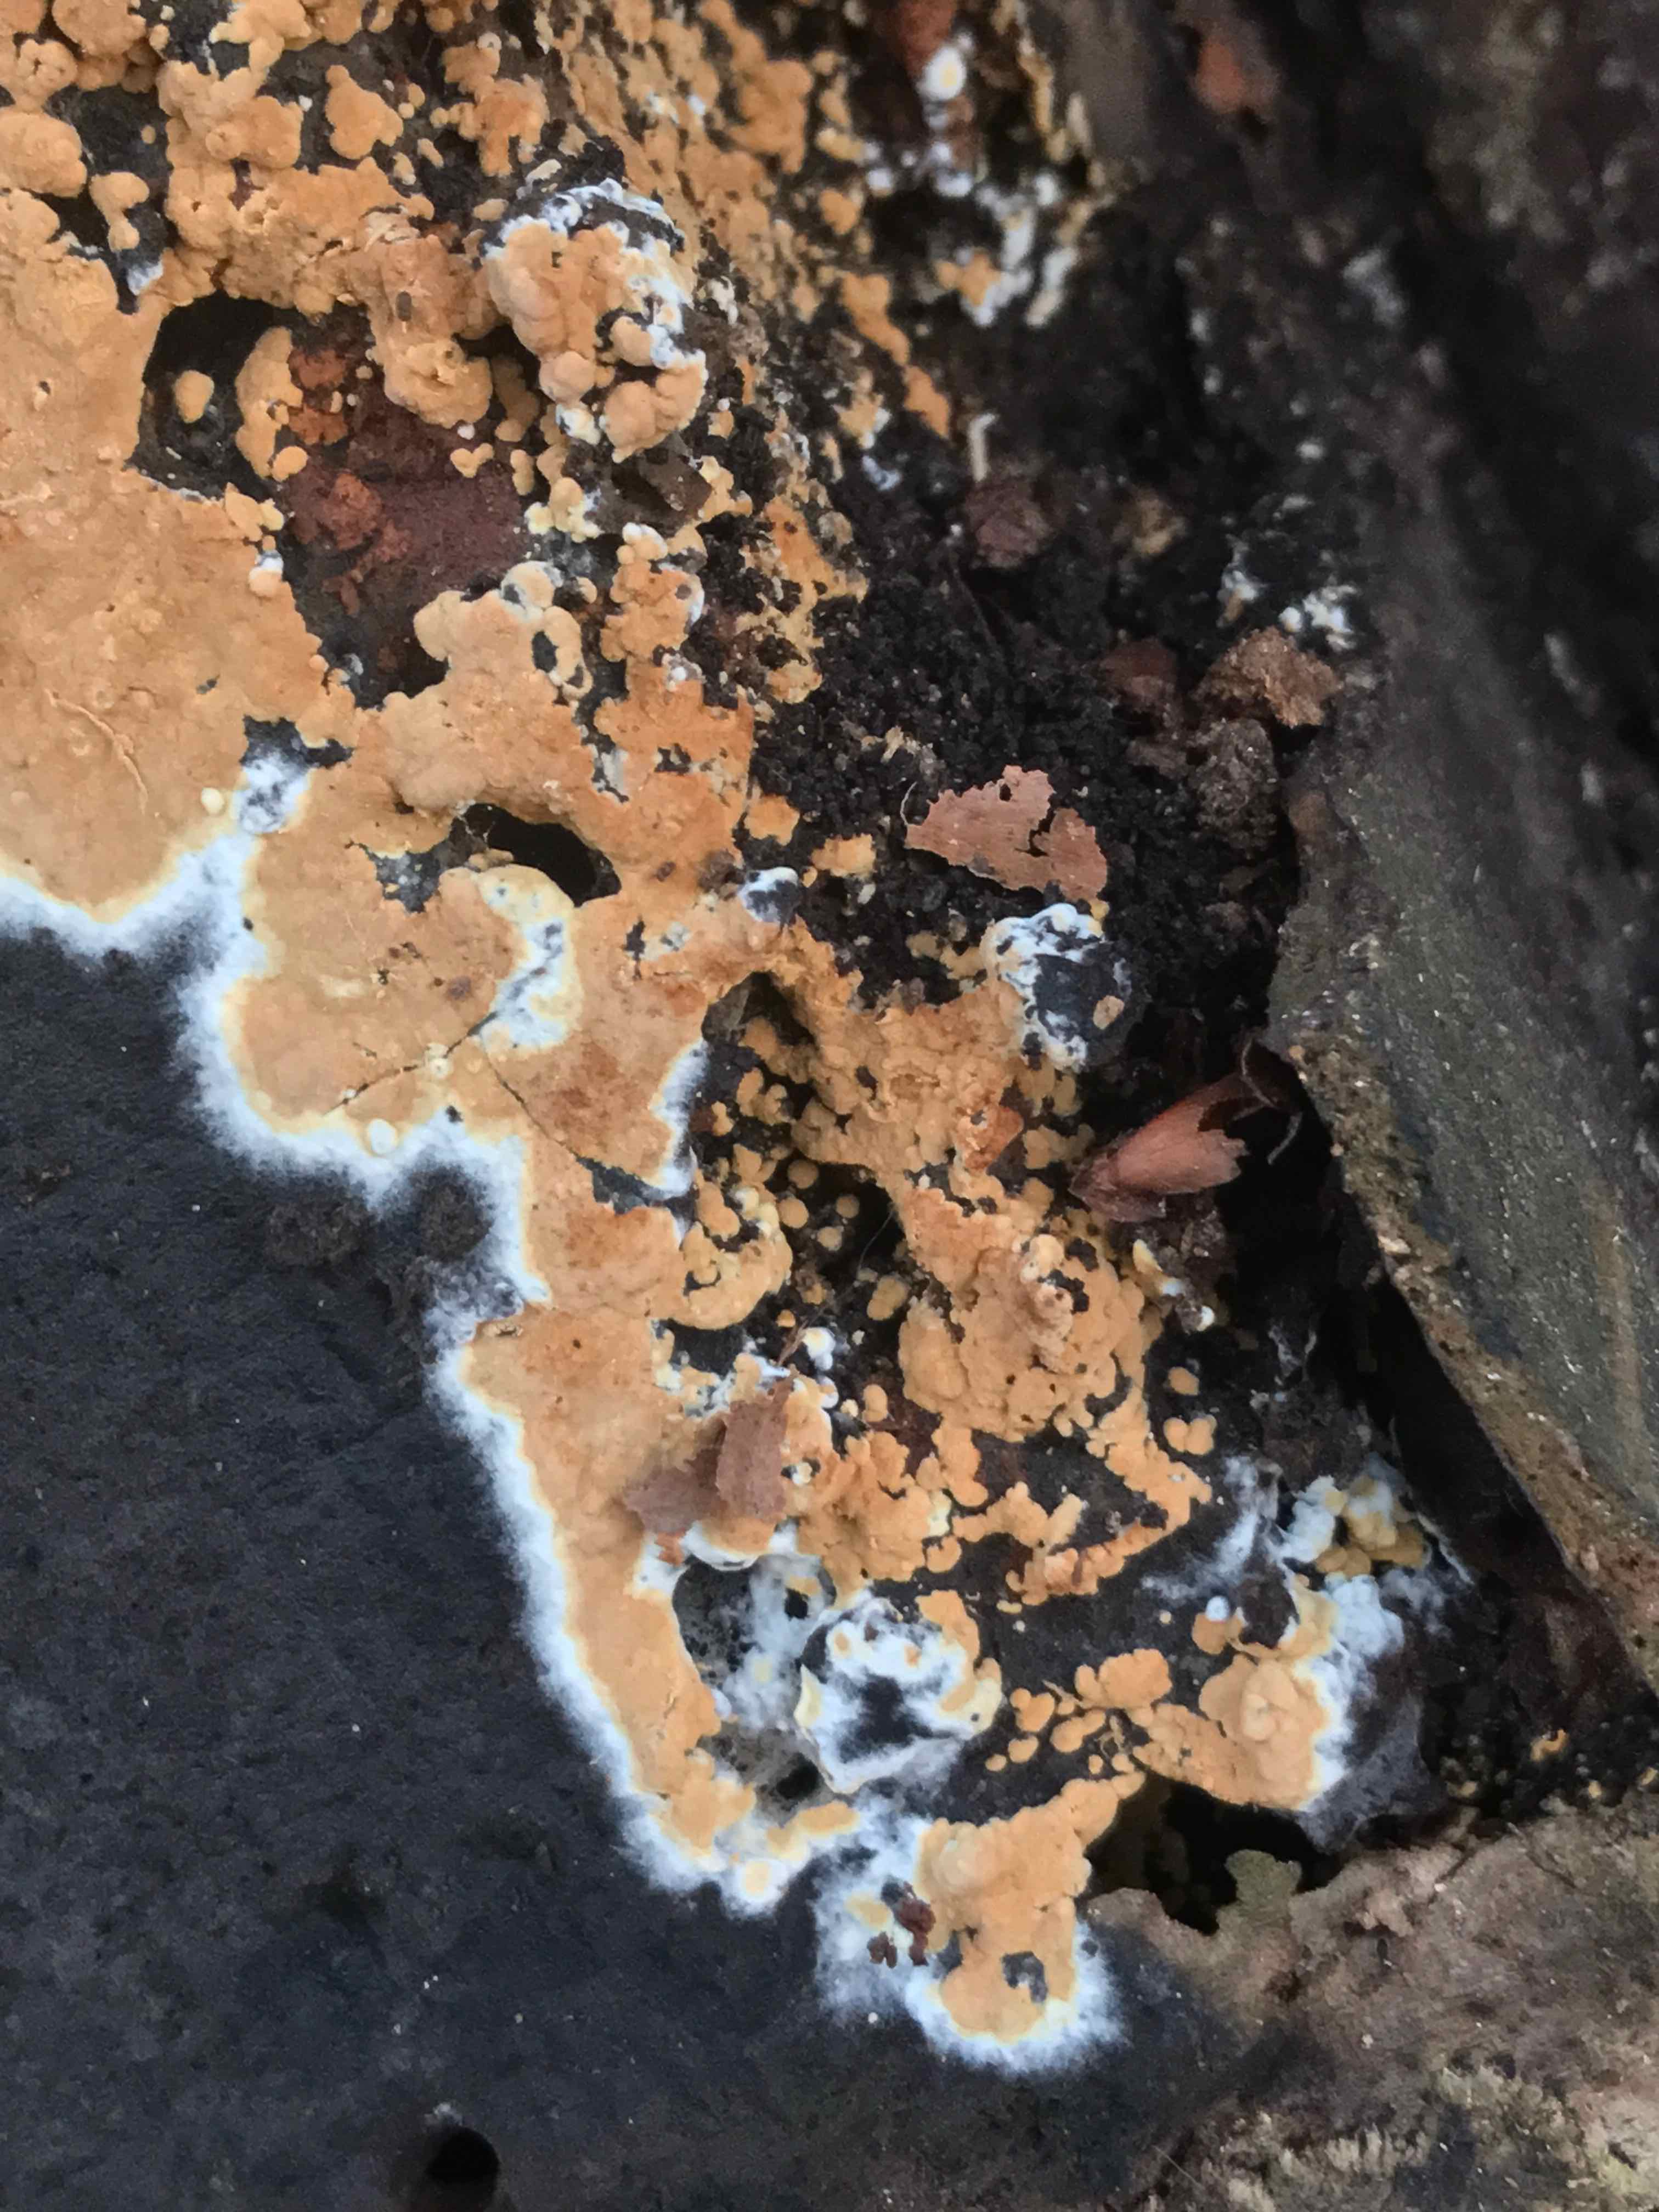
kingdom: Fungi
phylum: Basidiomycota
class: Agaricomycetes
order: Corticiales
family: Corticiaceae
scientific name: Corticiaceae
